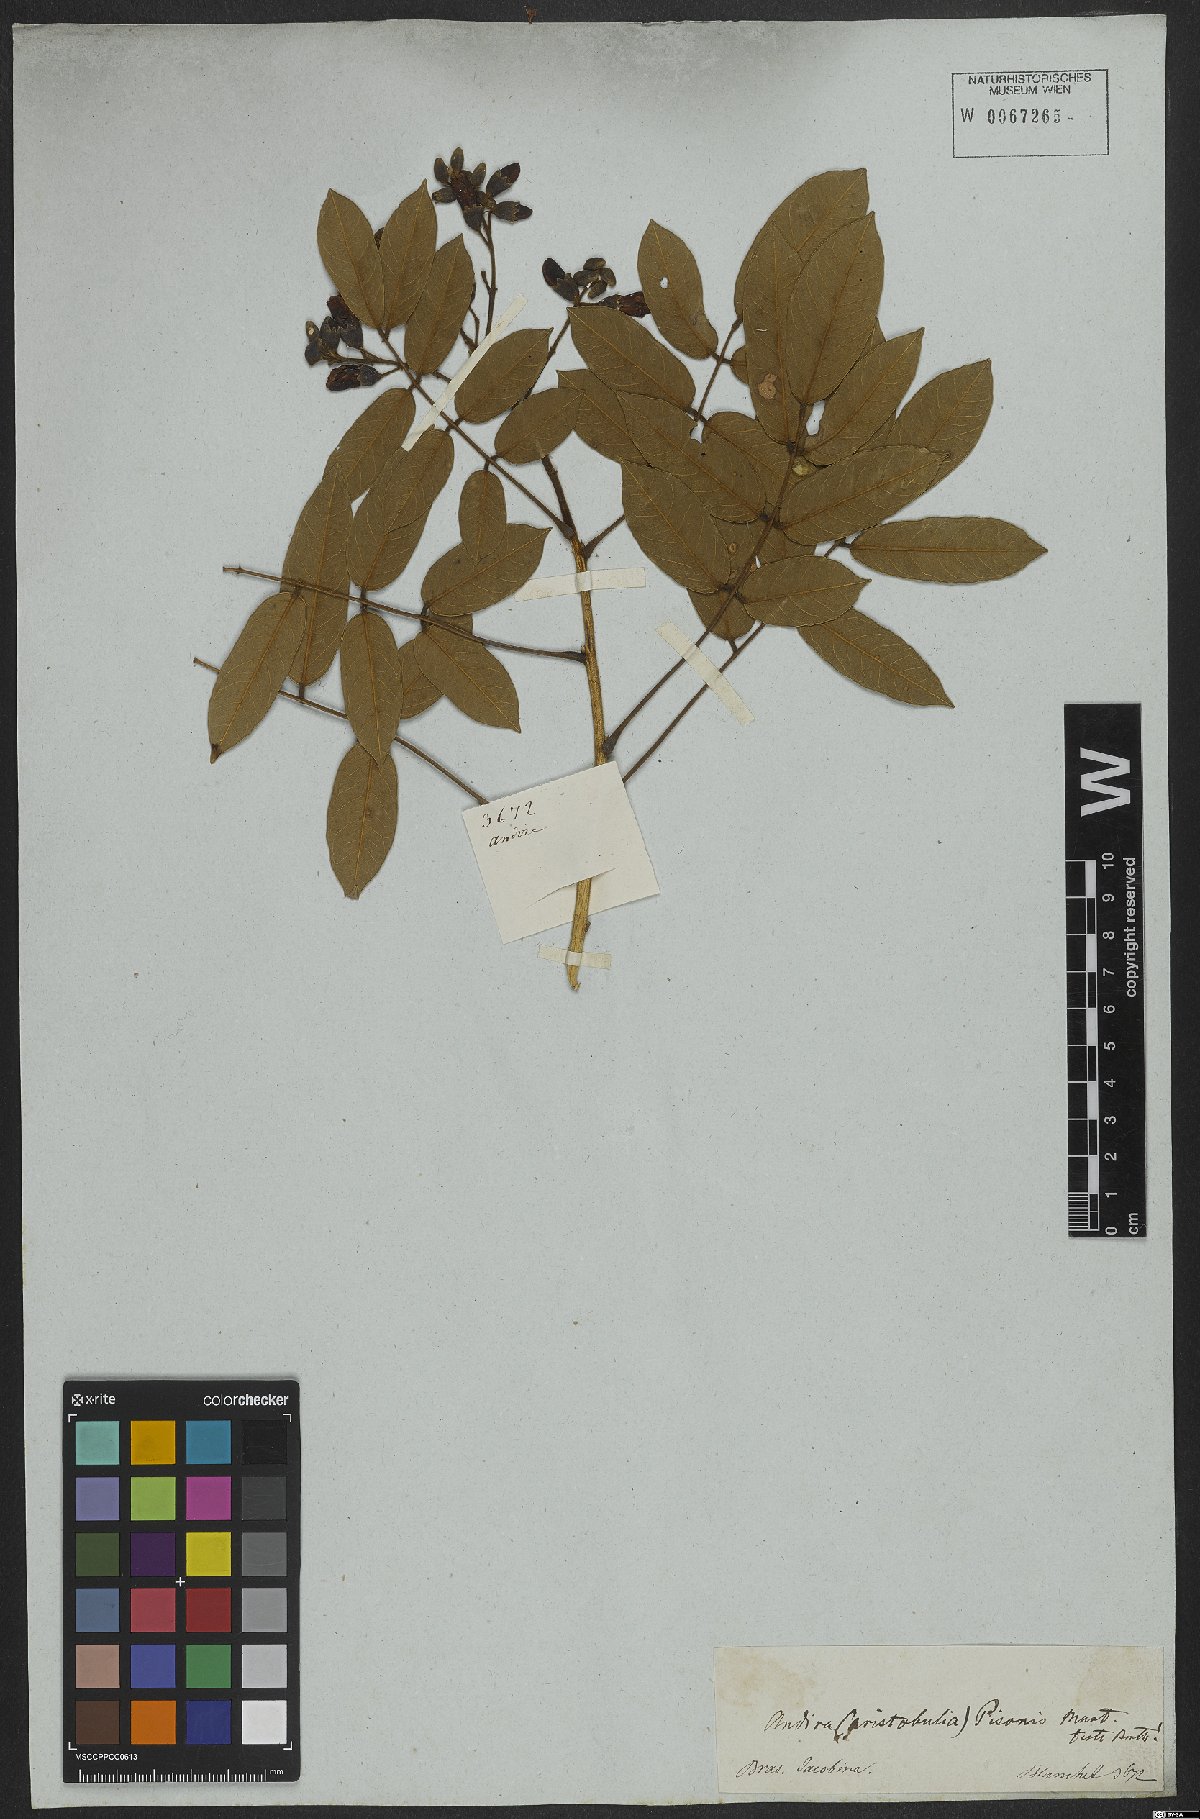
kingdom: Plantae
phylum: Tracheophyta
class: Magnoliopsida
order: Fabales
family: Fabaceae
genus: Andira
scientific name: Andira fraxinifolia
